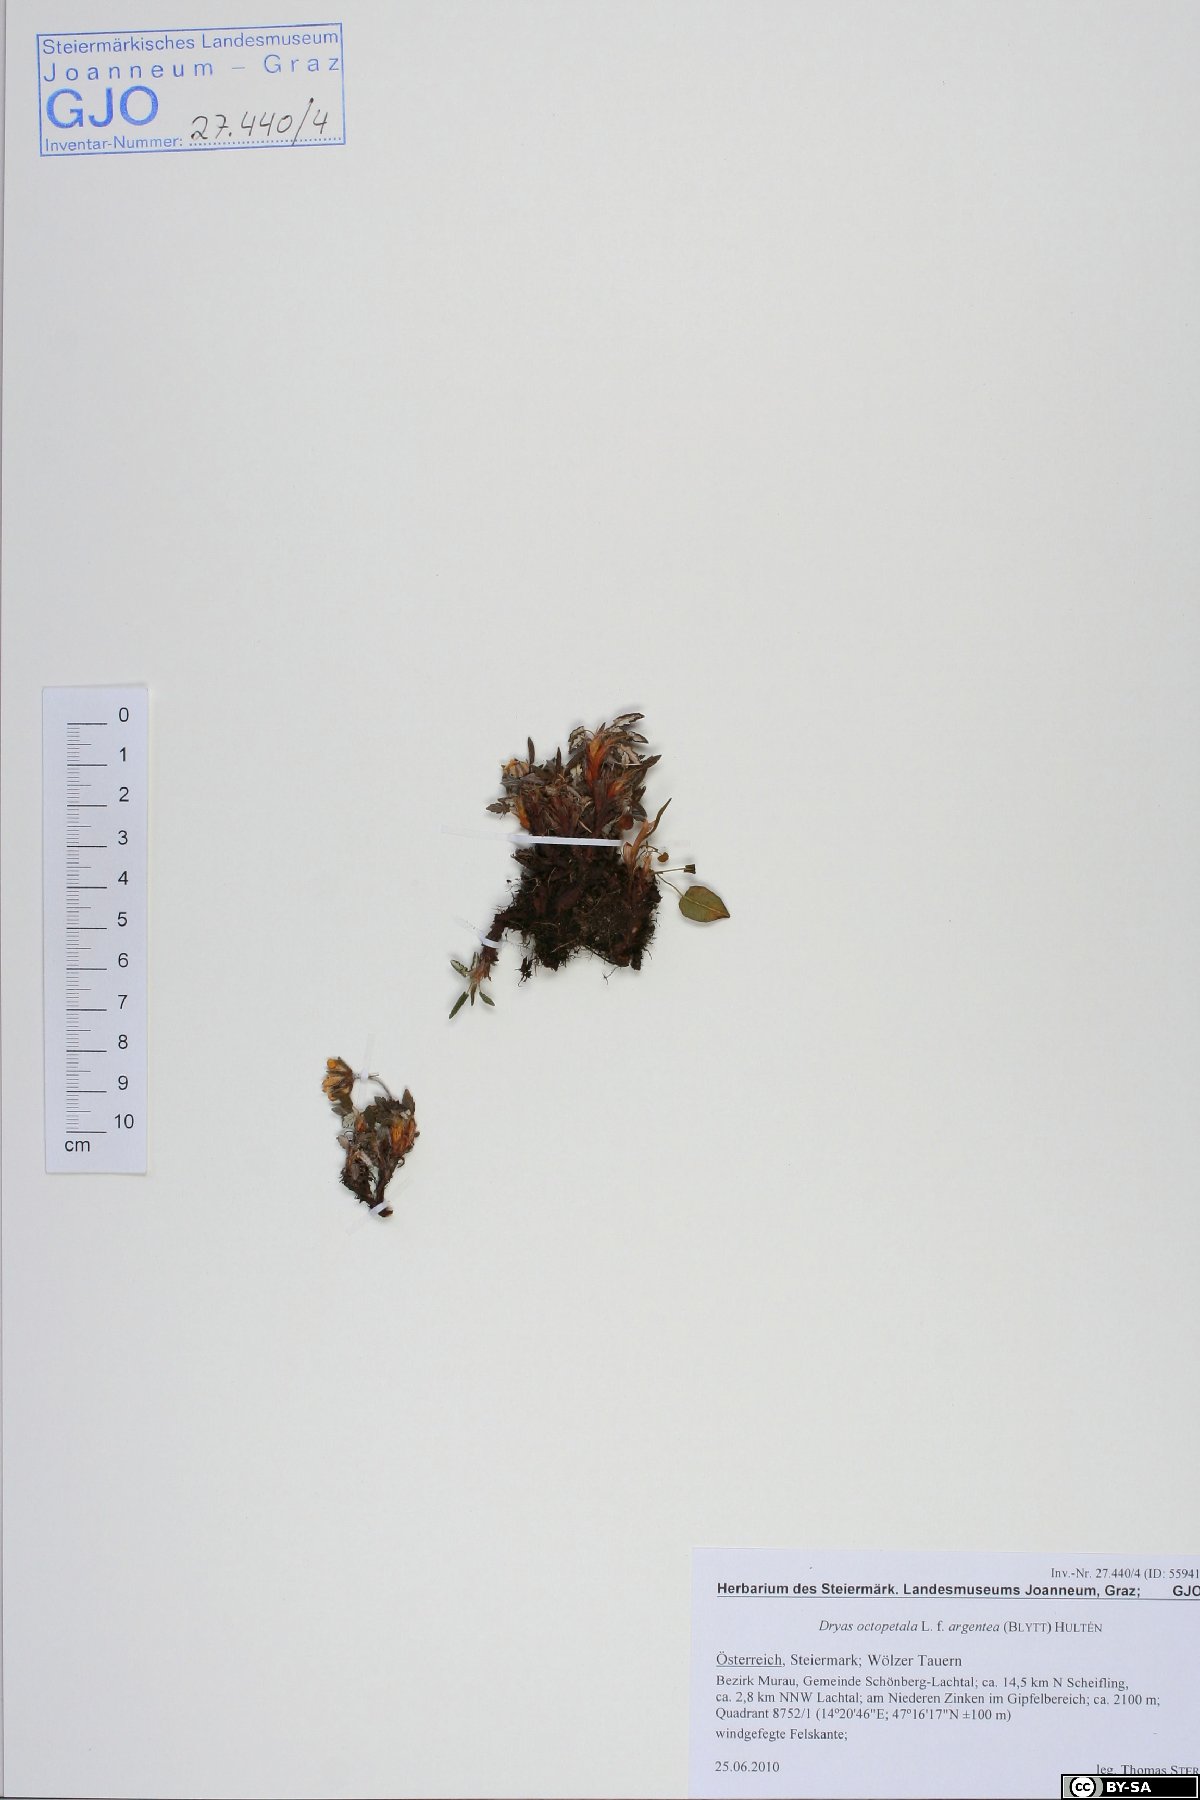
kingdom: Plantae
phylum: Tracheophyta
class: Magnoliopsida
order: Rosales
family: Rosaceae
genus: Dryas
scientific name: Dryas octopetala
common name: Eight-petal mountain-avens
